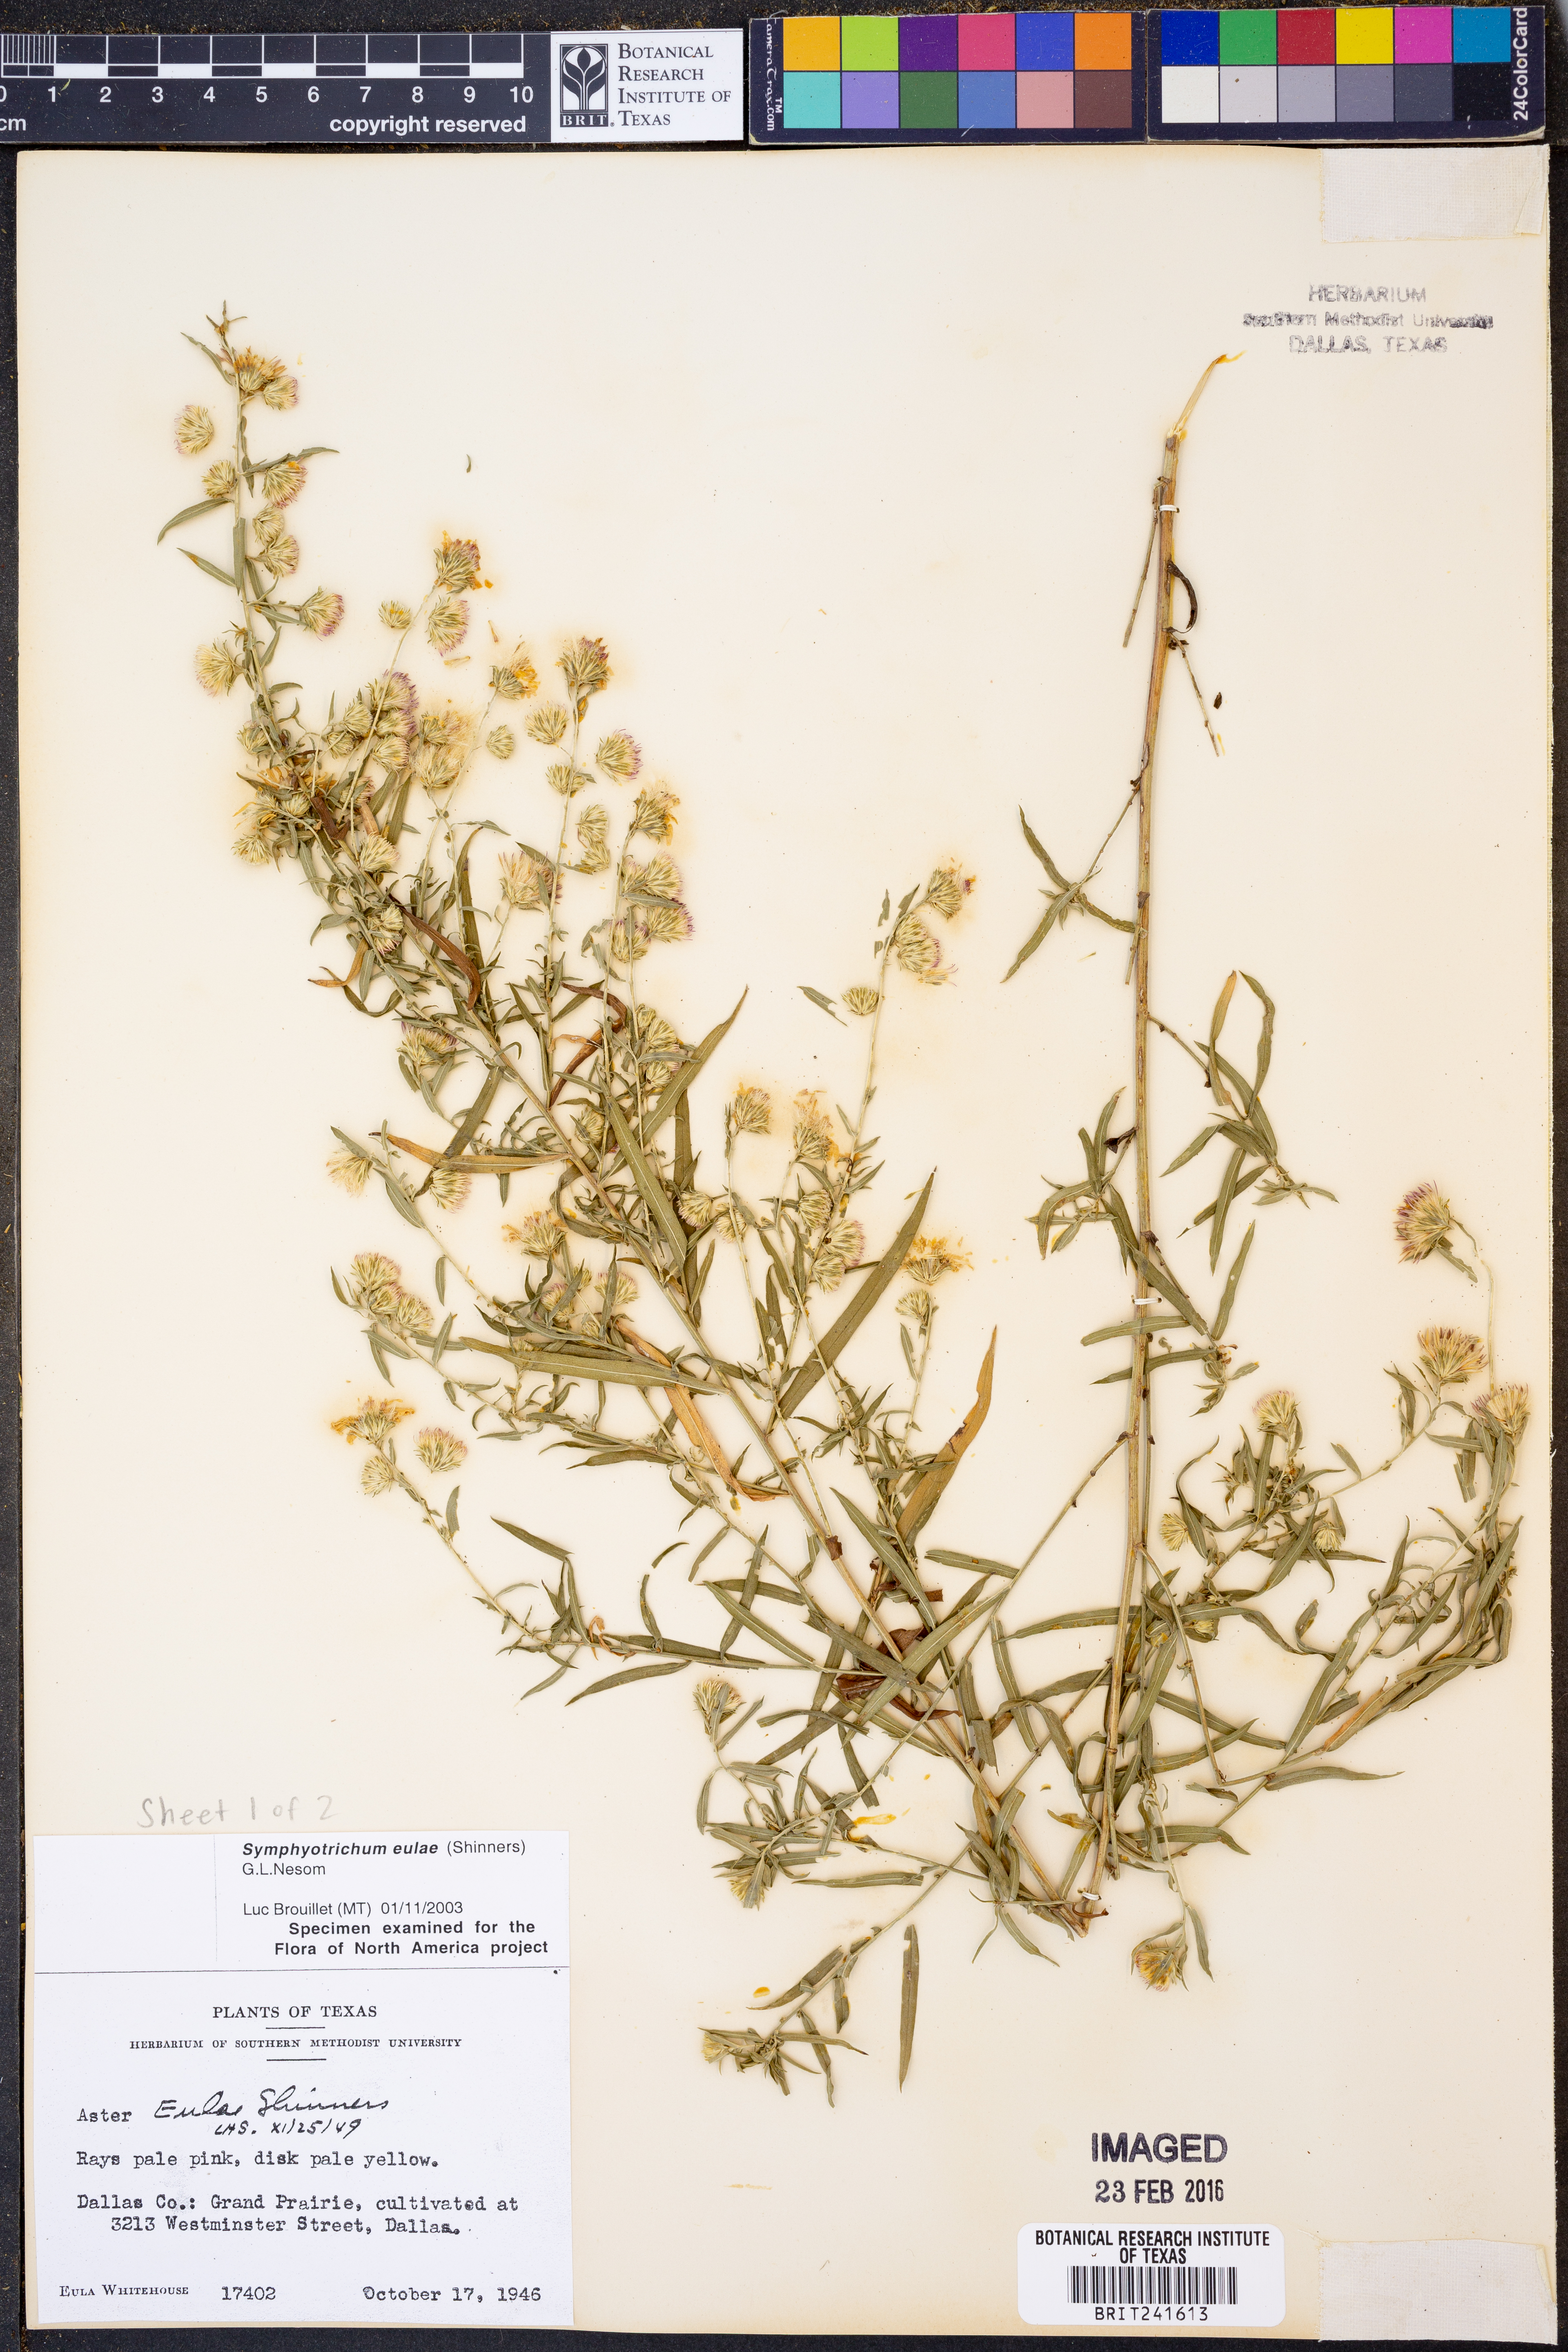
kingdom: Plantae
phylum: Tracheophyta
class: Magnoliopsida
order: Asterales
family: Asteraceae
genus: Symphyotrichum
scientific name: Symphyotrichum eulae
